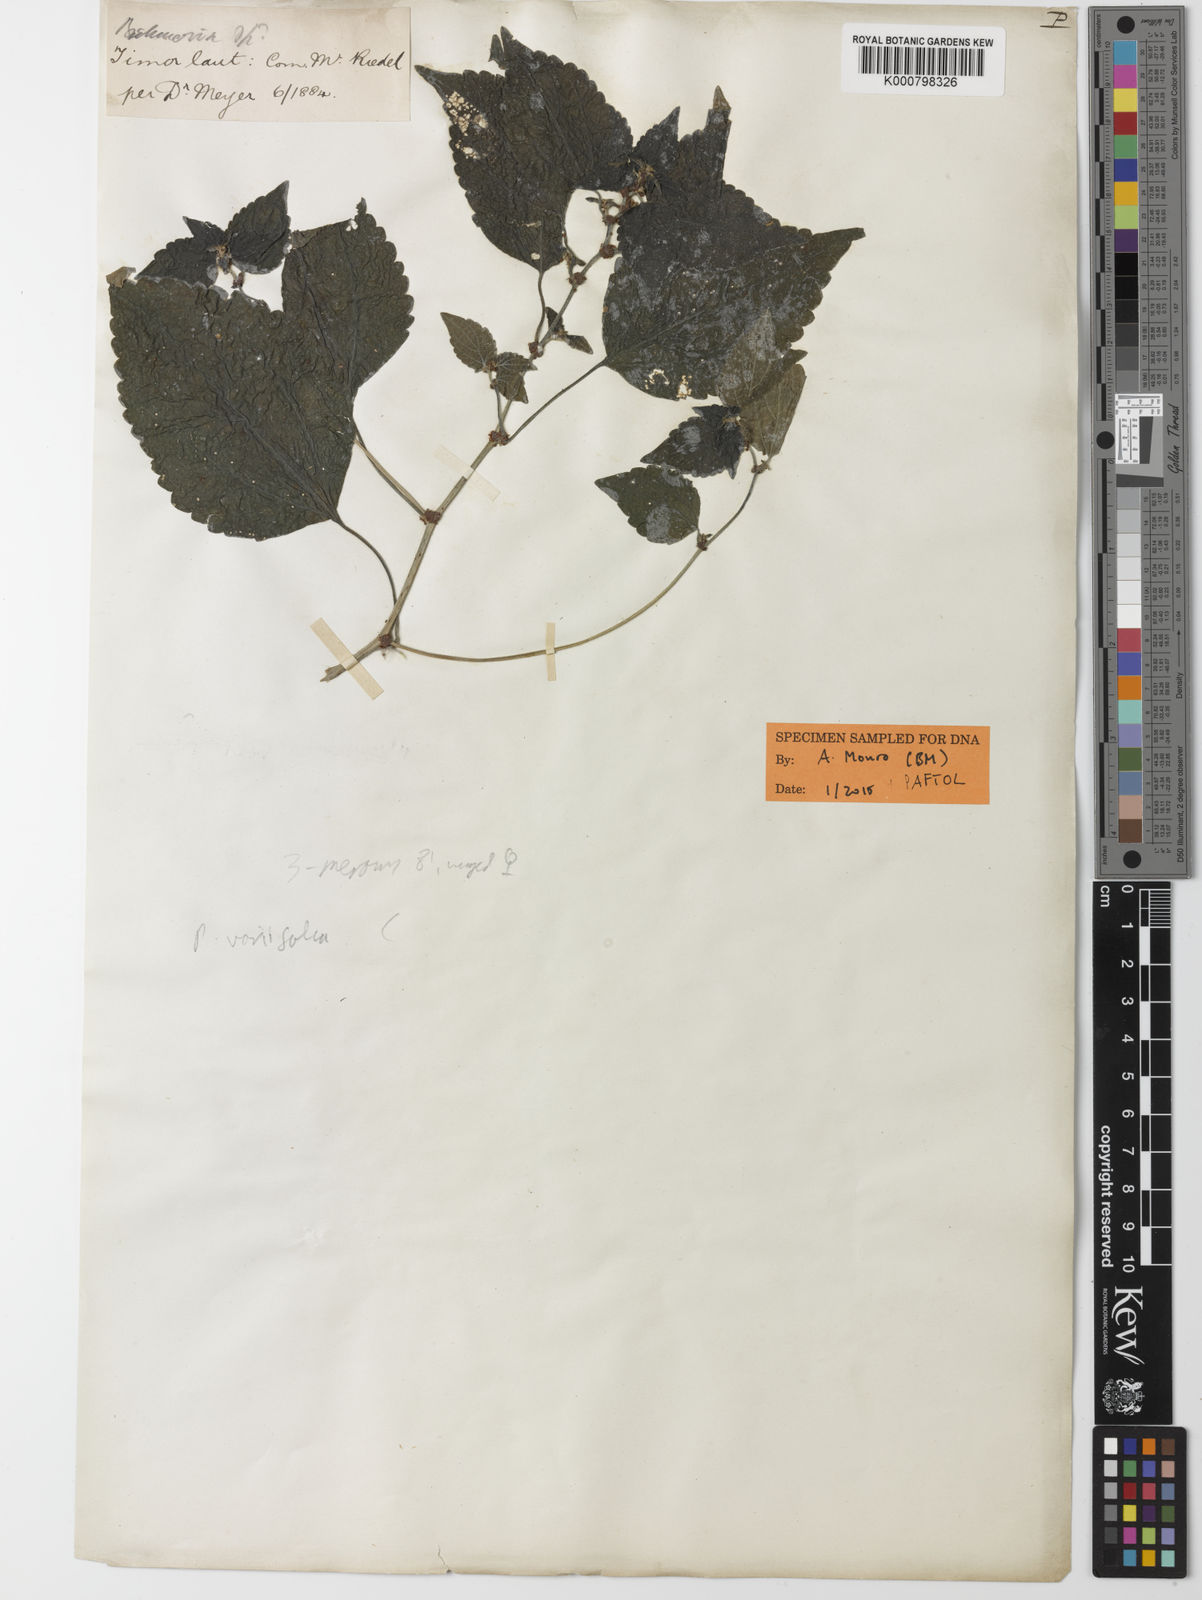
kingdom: Plantae
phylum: Tracheophyta
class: Magnoliopsida
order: Rosales
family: Urticaceae
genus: Pouzolzia
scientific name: Pouzolzia variifolia
